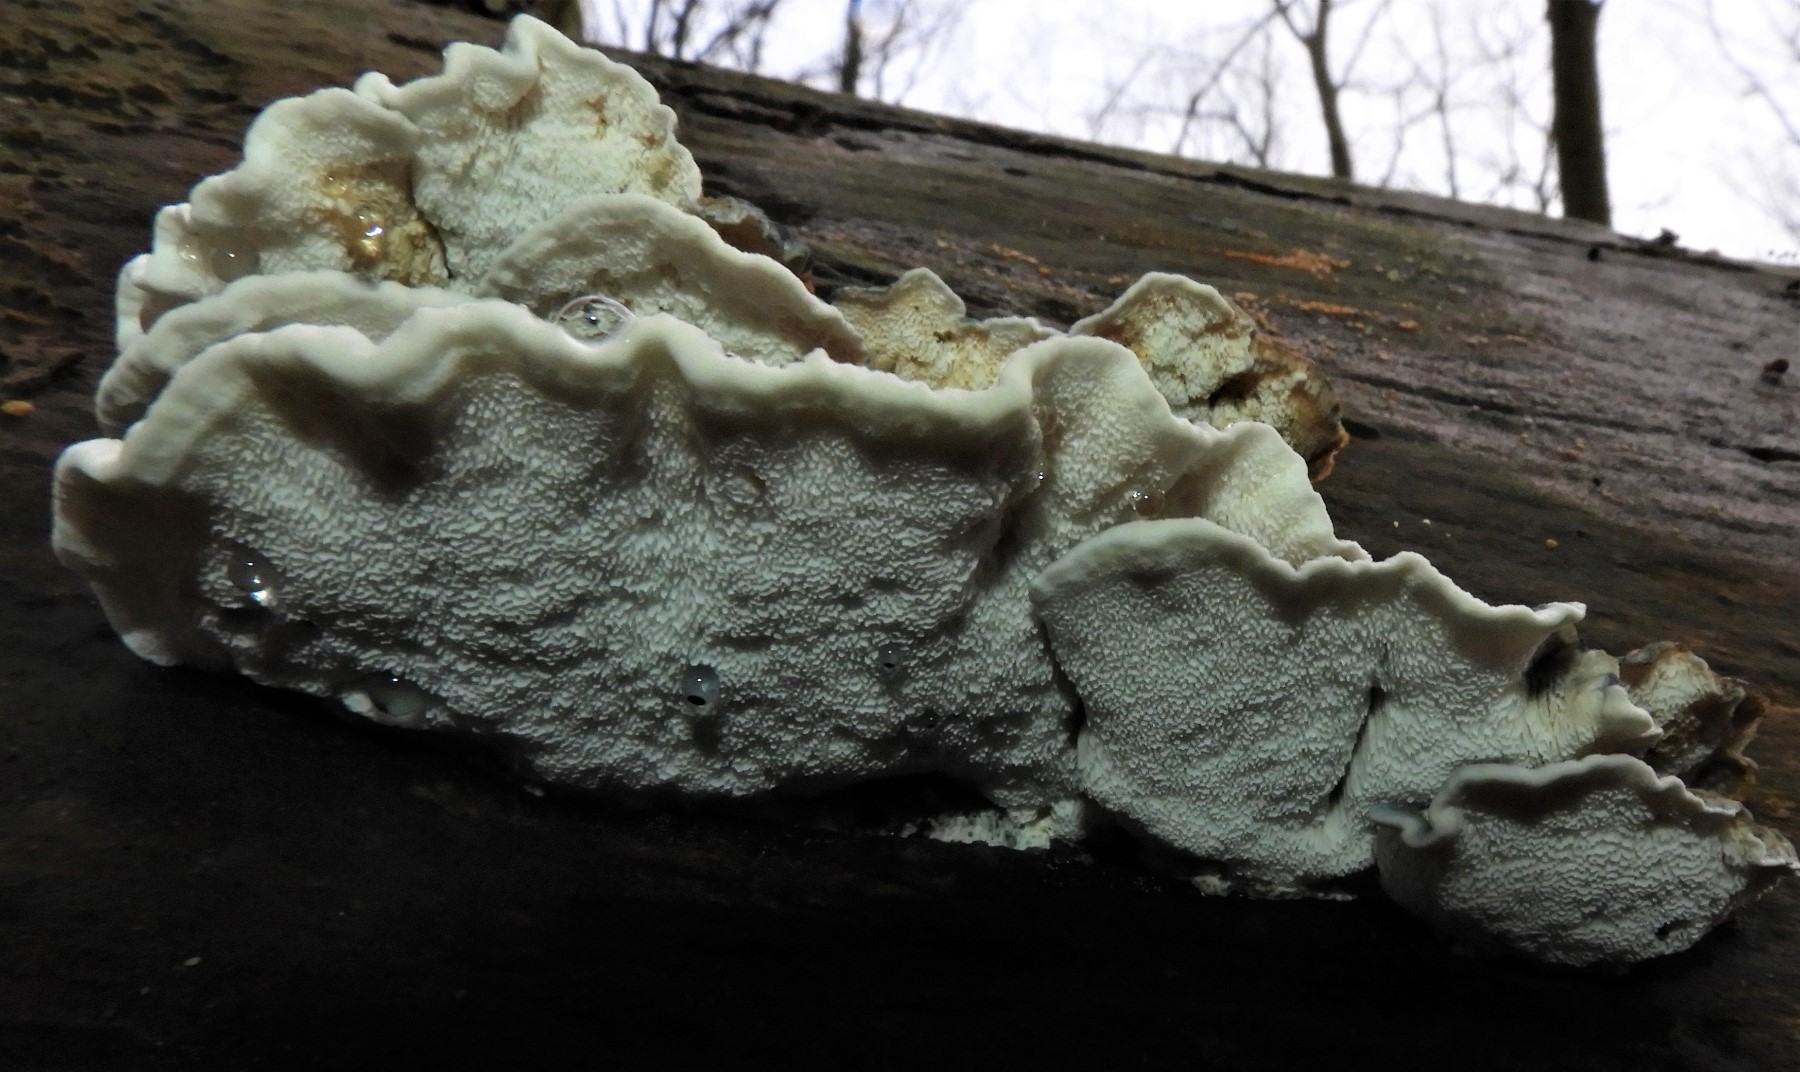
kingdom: Fungi
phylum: Basidiomycota
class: Agaricomycetes
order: Polyporales
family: Polyporaceae
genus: Cyanosporus
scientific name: Cyanosporus alni
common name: blegblå kødporesvamp
